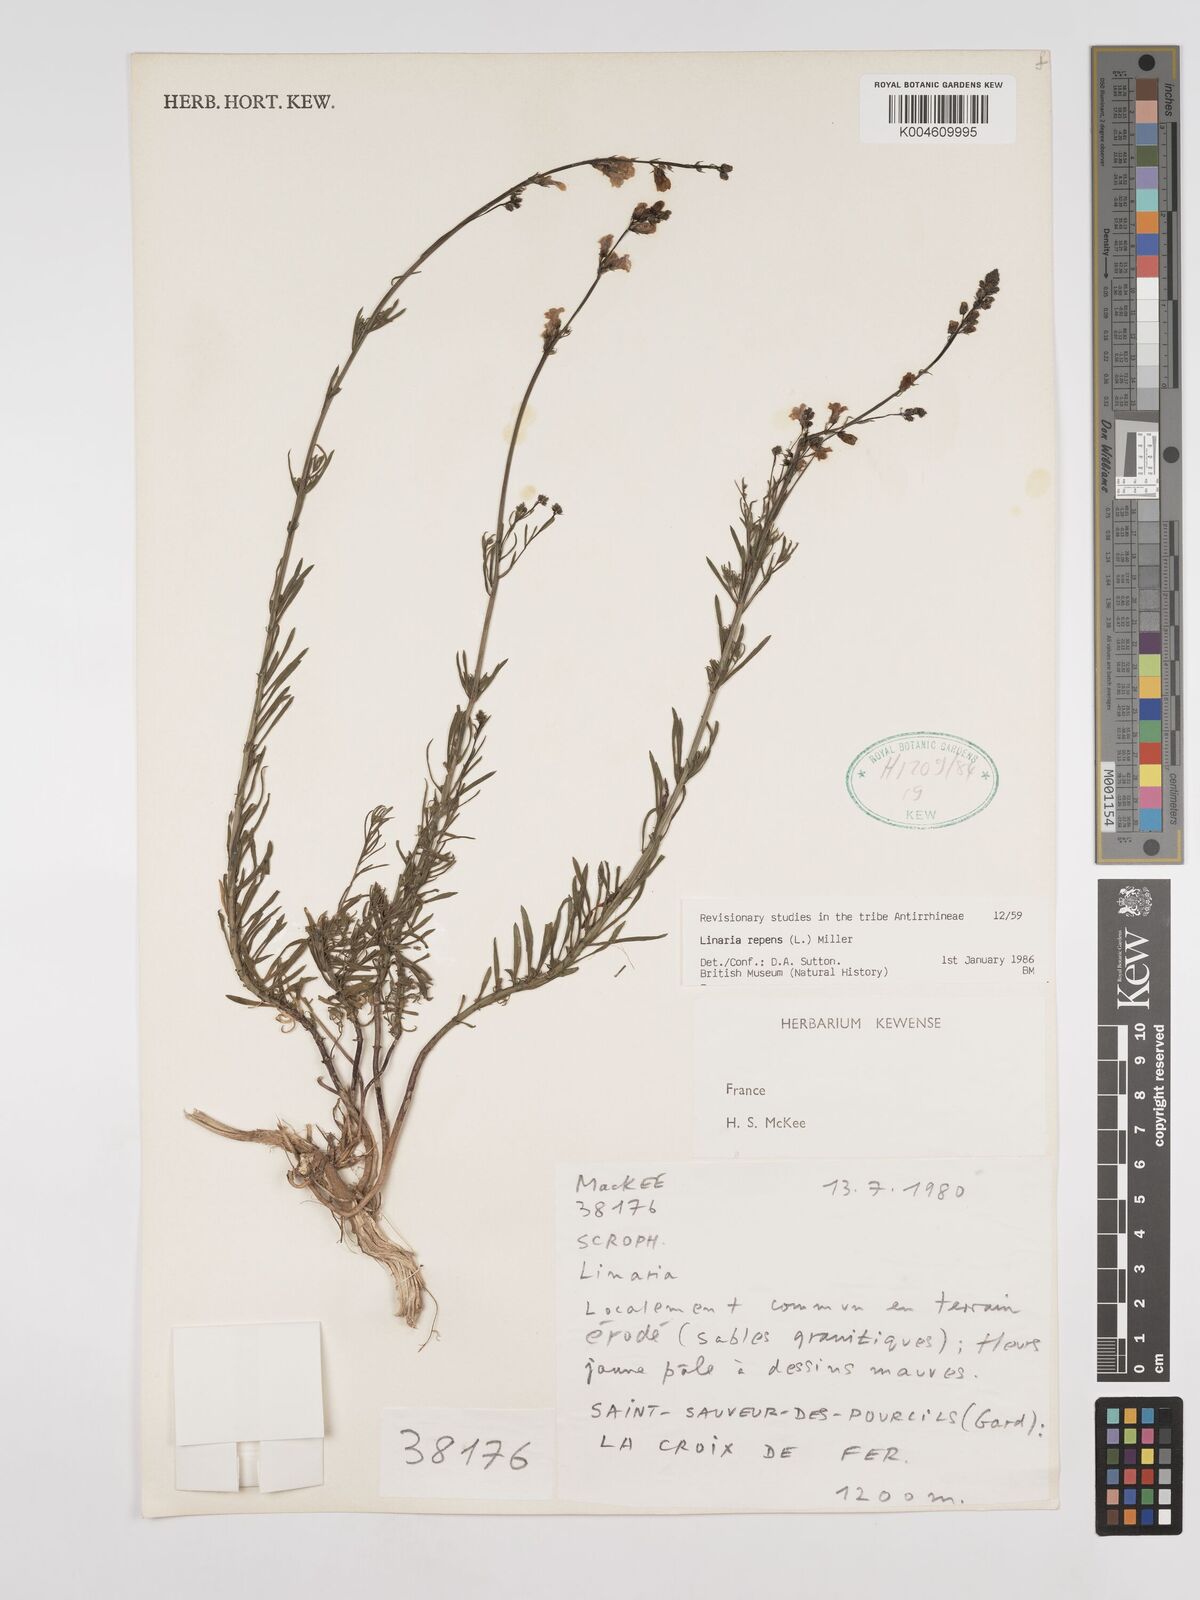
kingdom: Plantae
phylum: Tracheophyta
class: Magnoliopsida
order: Lamiales
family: Plantaginaceae
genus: Linaria
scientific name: Linaria repens
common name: Pale toadflax
